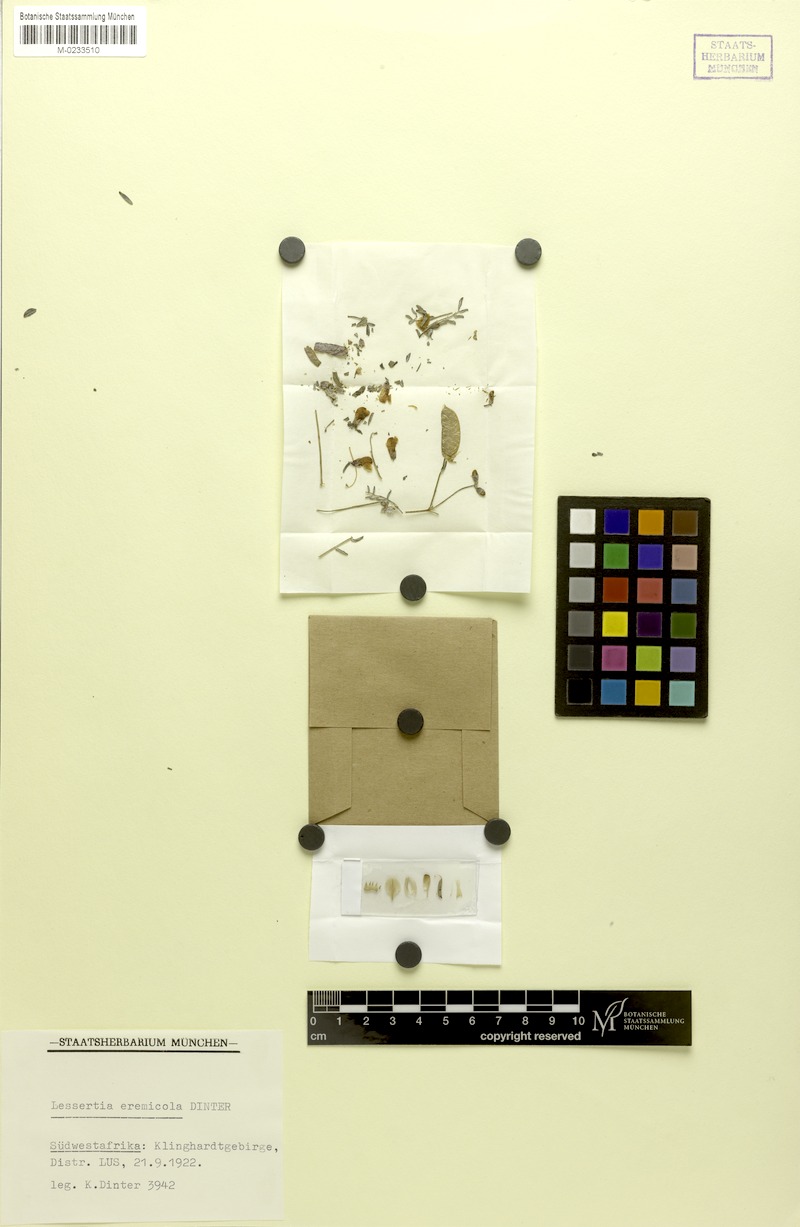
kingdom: Plantae
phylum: Tracheophyta
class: Magnoliopsida
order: Fabales
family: Fabaceae
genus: Lessertia
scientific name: Lessertia eremicola
